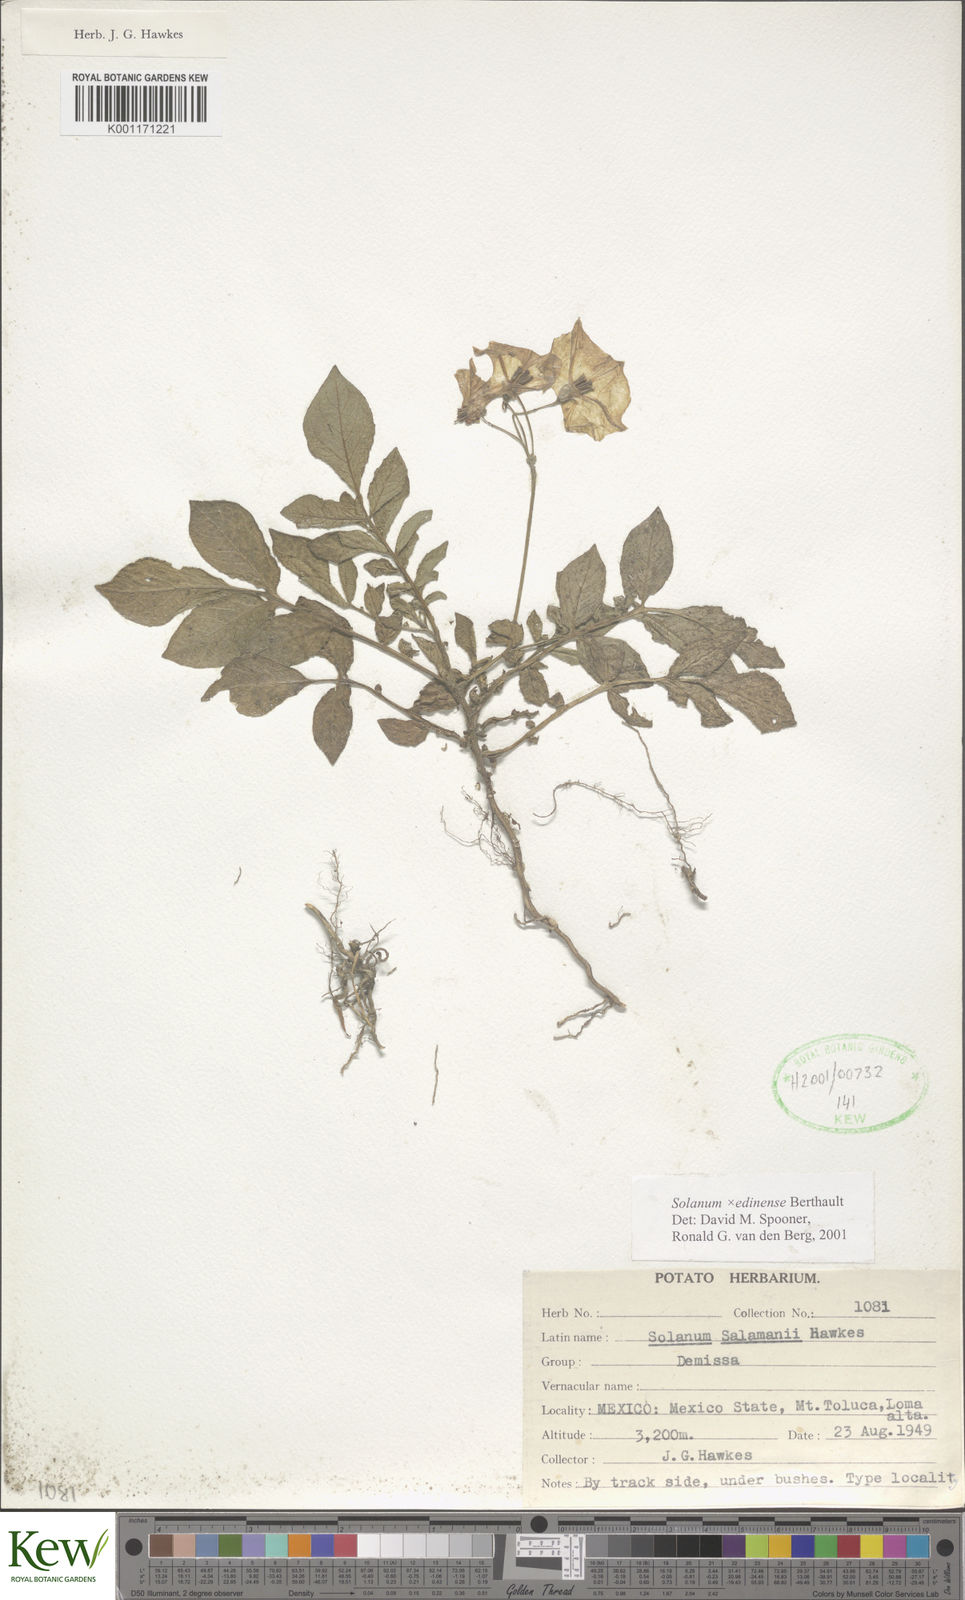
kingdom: Plantae
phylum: Tracheophyta
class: Magnoliopsida
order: Solanales
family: Solanaceae
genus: Solanum
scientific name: Solanum edinense
